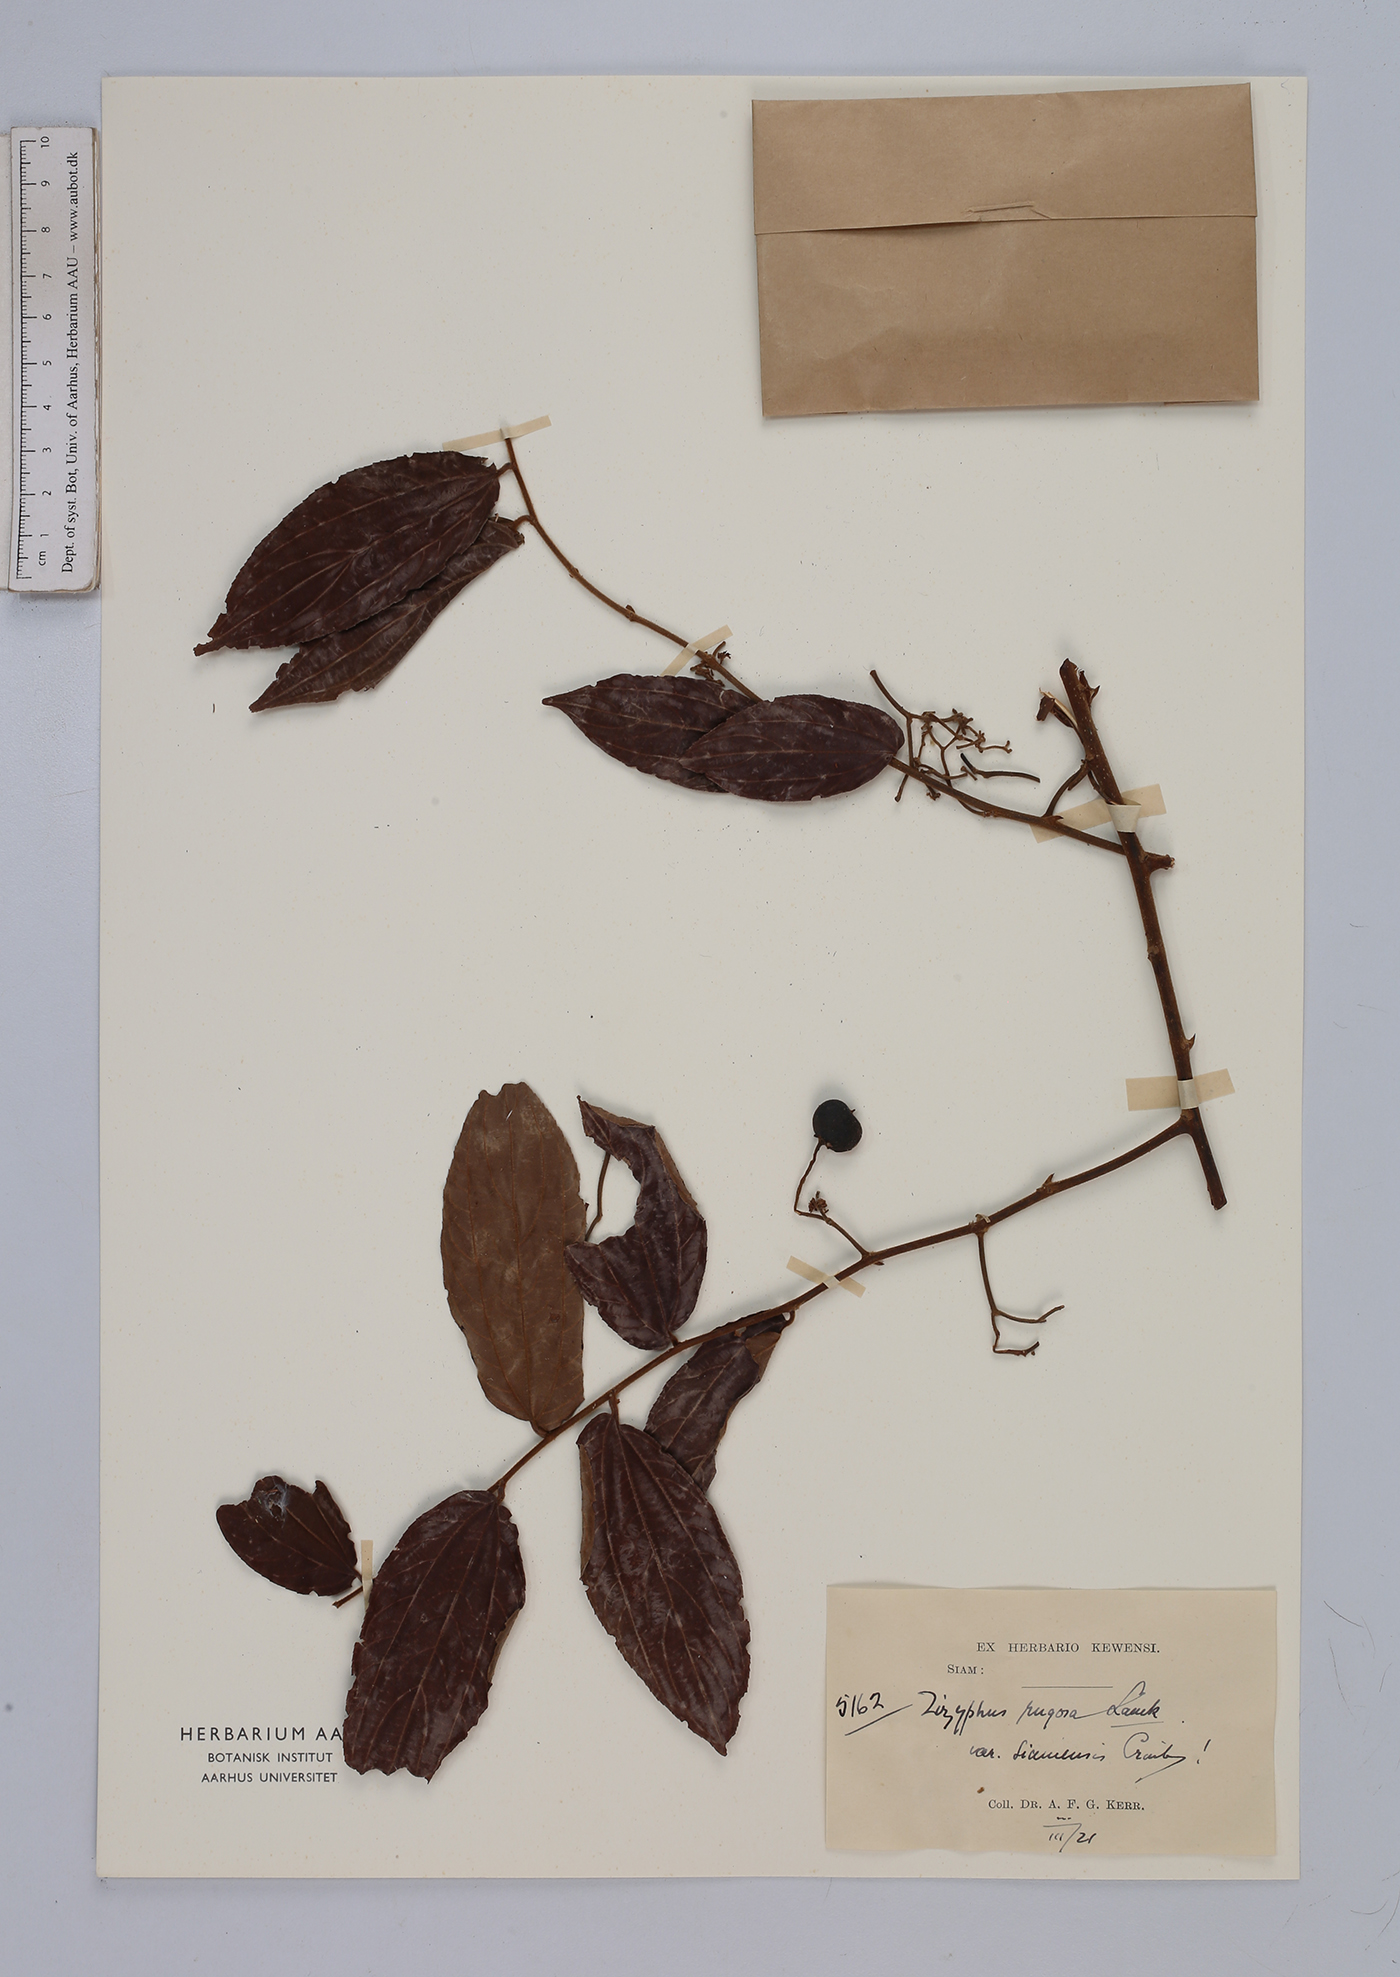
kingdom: Plantae
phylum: Tracheophyta
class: Magnoliopsida
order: Rosales
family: Rhamnaceae
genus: Ziziphus
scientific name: Ziziphus rugosa
